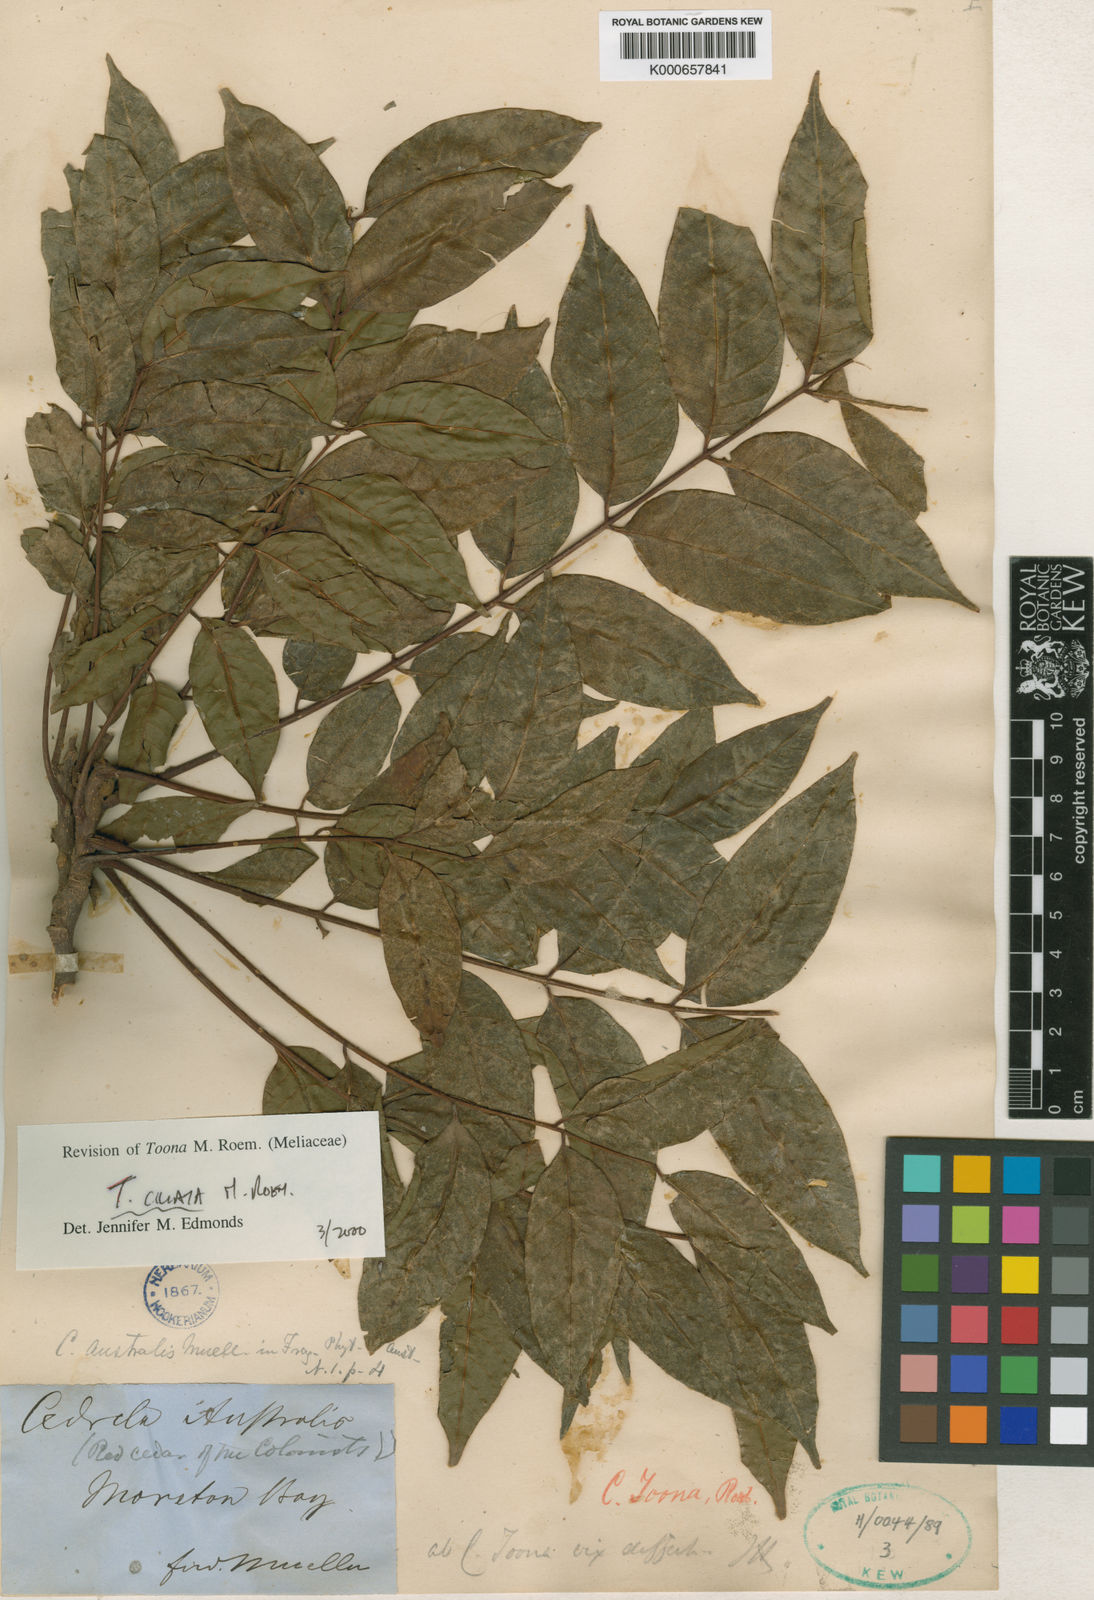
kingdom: Plantae
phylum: Tracheophyta
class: Magnoliopsida
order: Sapindales
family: Meliaceae
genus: Toona
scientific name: Toona ciliata
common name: Australian redcedar
